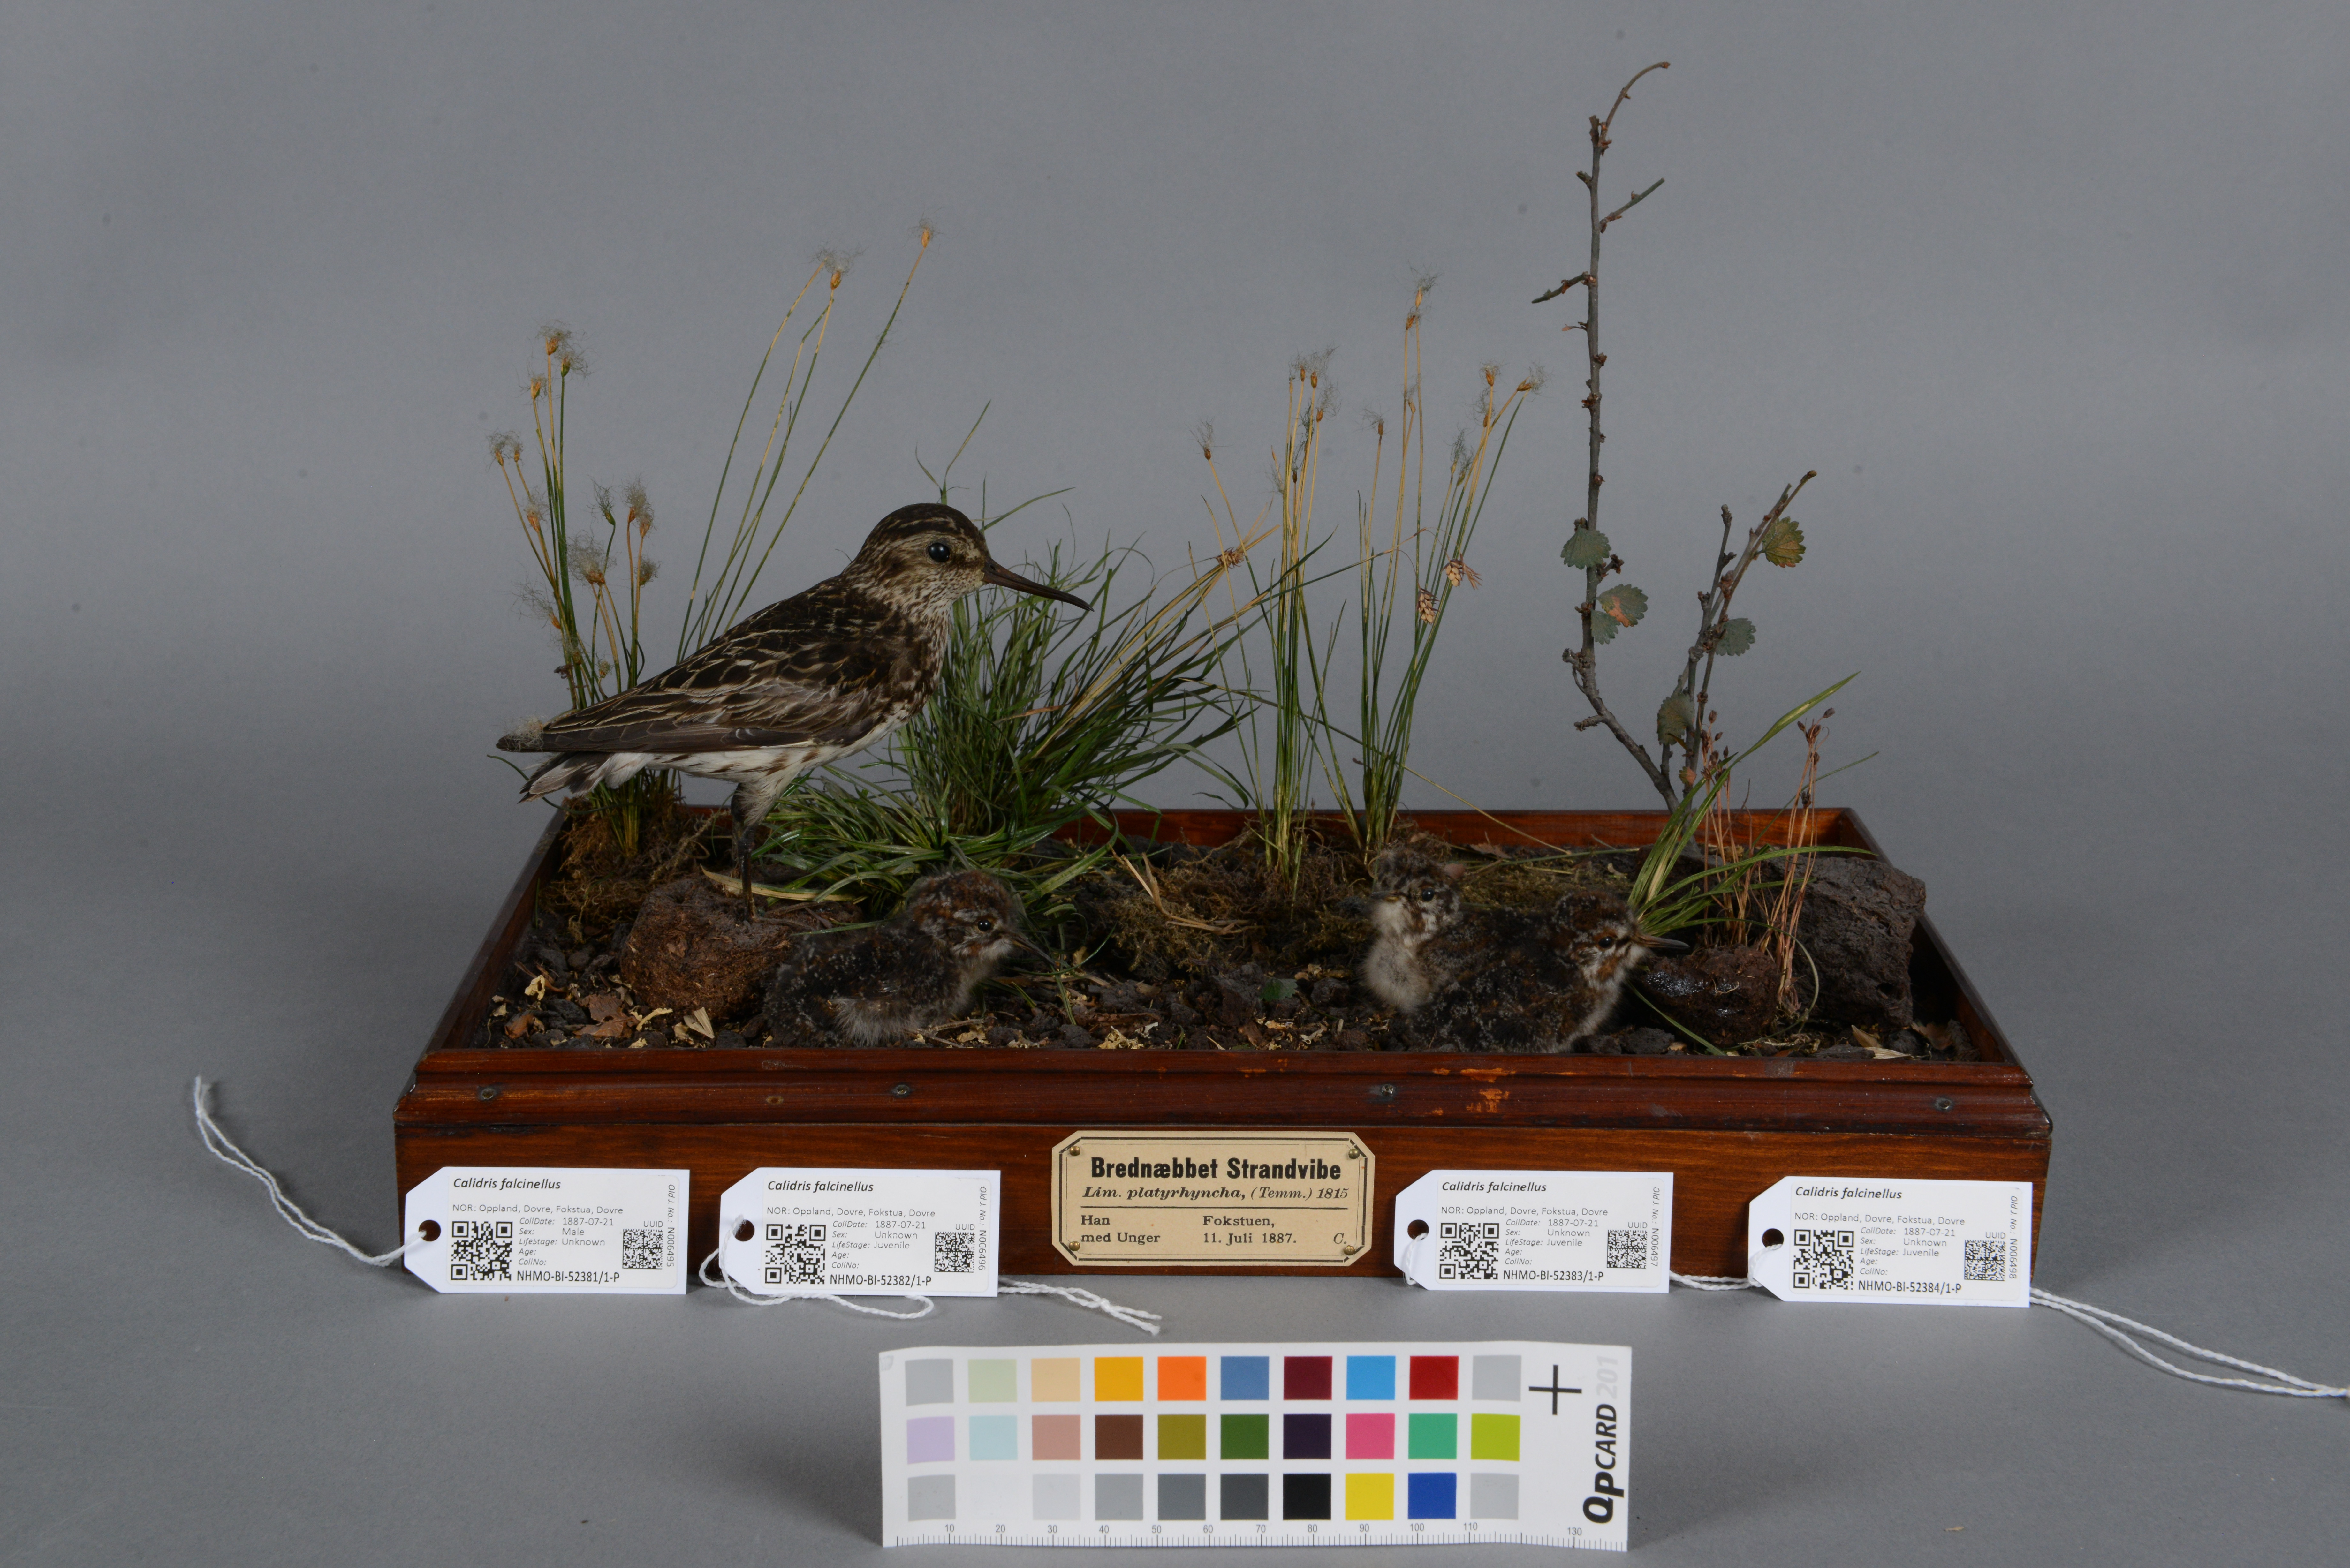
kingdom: Animalia
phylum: Chordata
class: Aves
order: Charadriiformes
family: Scolopacidae
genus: Calidris
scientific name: Calidris falcinellus
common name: Broad-billed sandpiper
